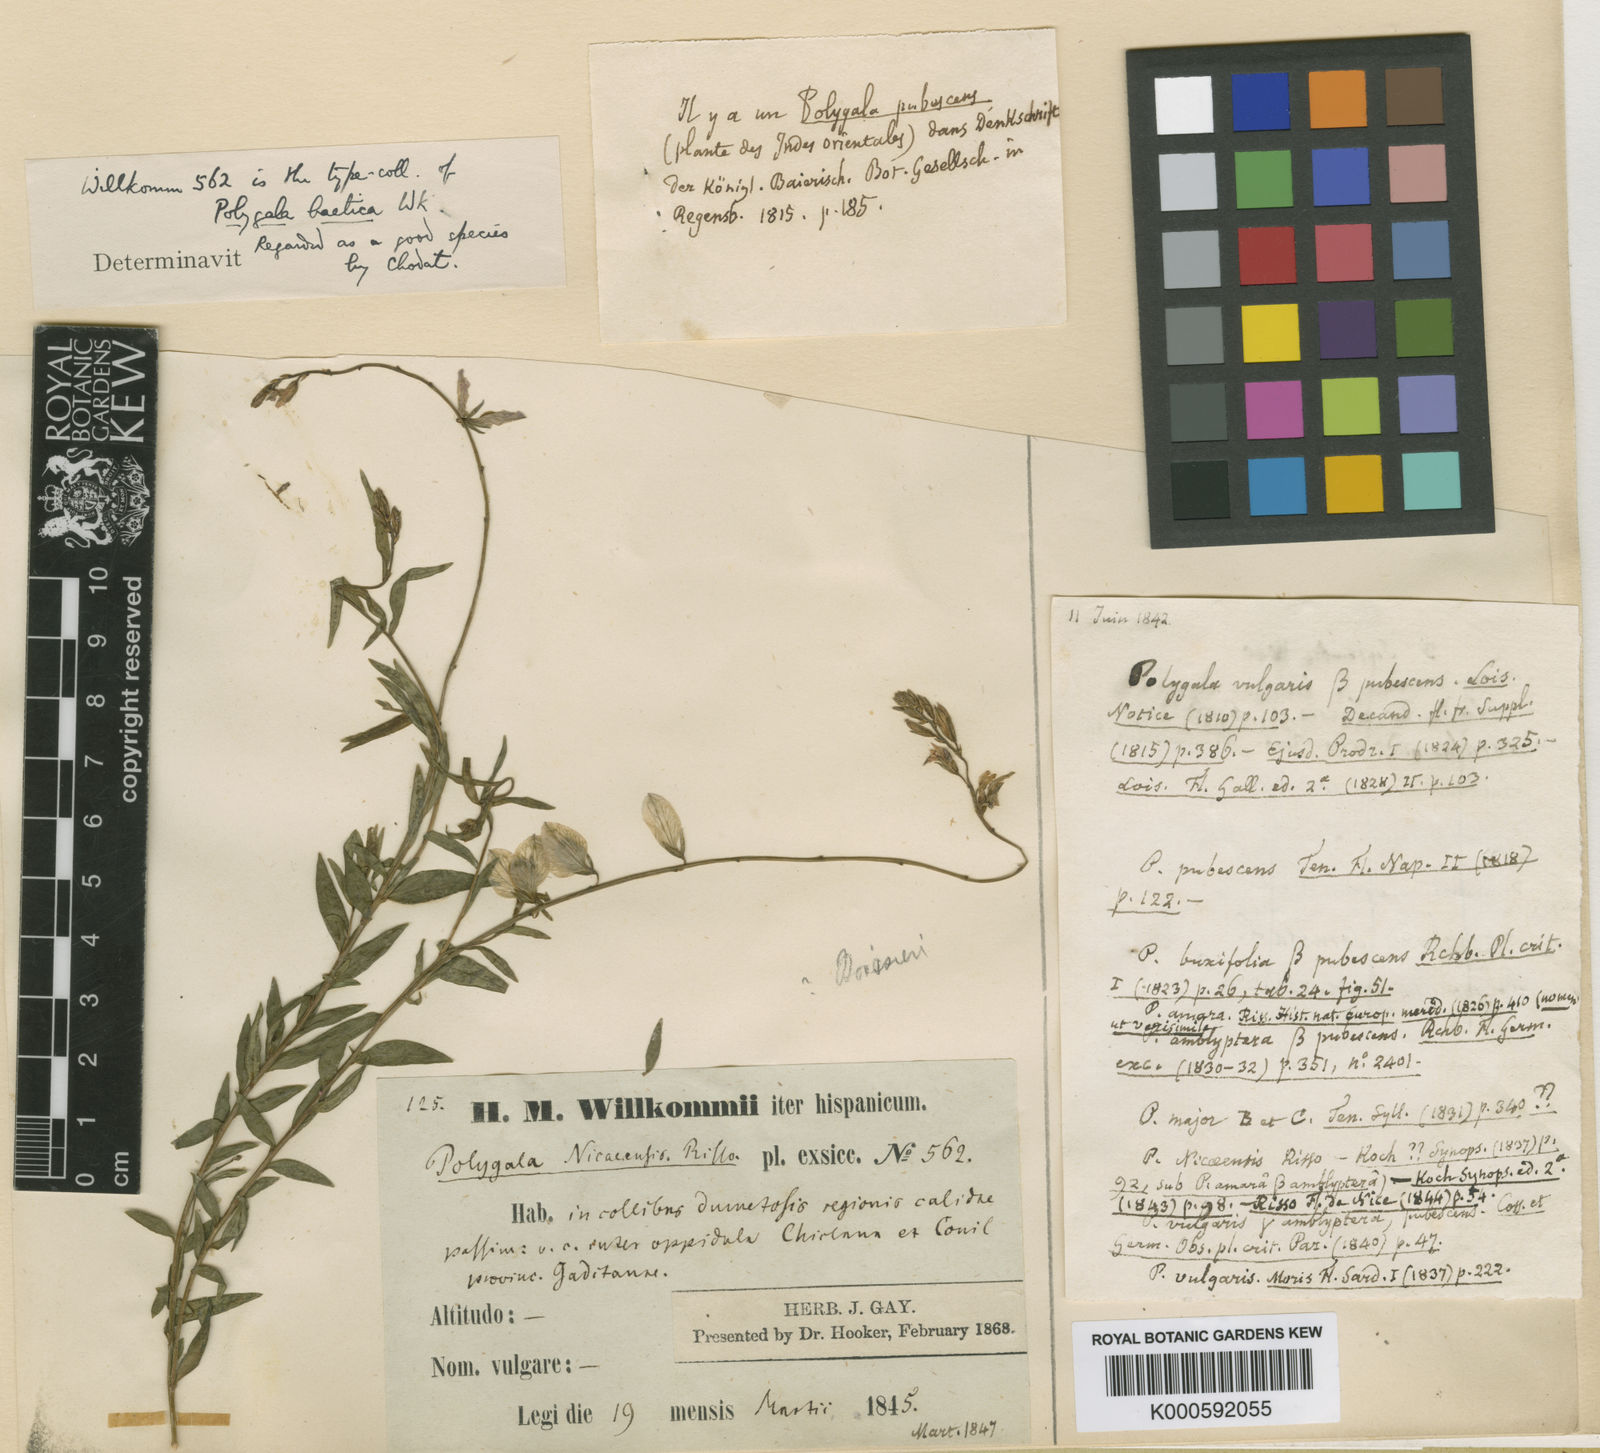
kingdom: Plantae
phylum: Tracheophyta
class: Magnoliopsida
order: Fabales
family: Polygalaceae
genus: Polygala
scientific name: Polygala baetica
